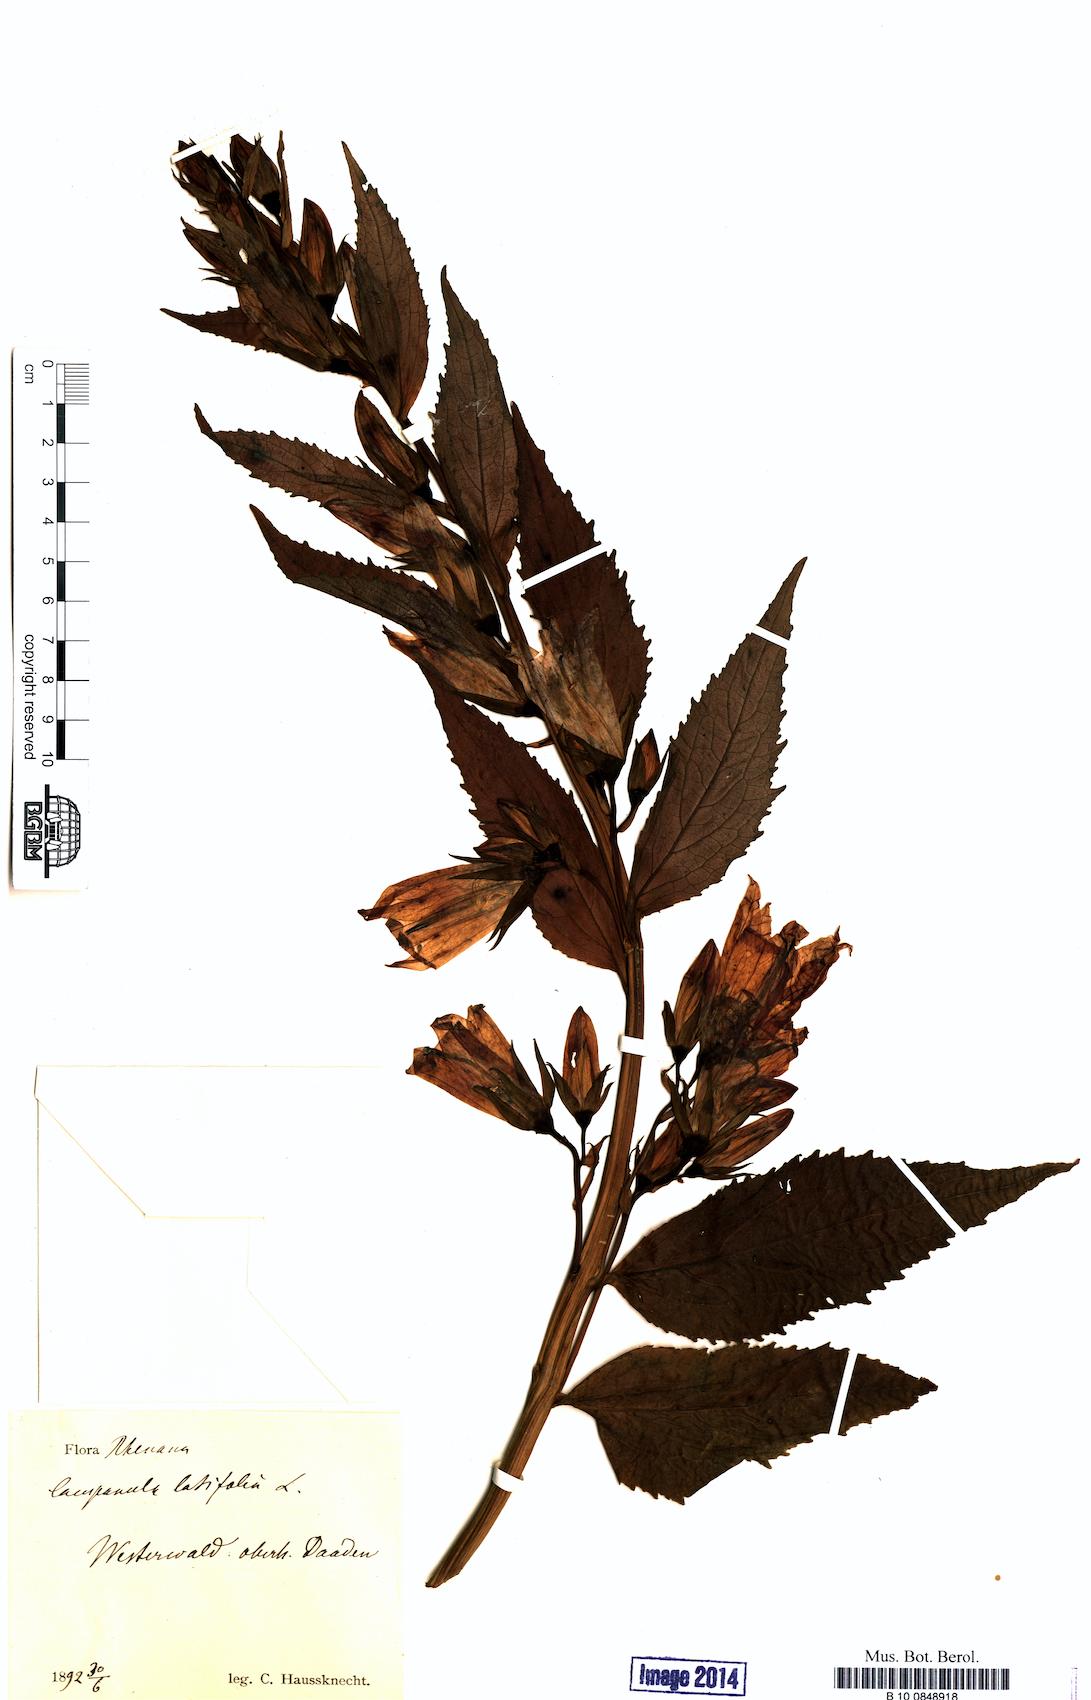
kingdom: Plantae
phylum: Tracheophyta
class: Magnoliopsida
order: Asterales
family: Campanulaceae
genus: Campanula
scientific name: Campanula latifolia
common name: Giant bellflower
